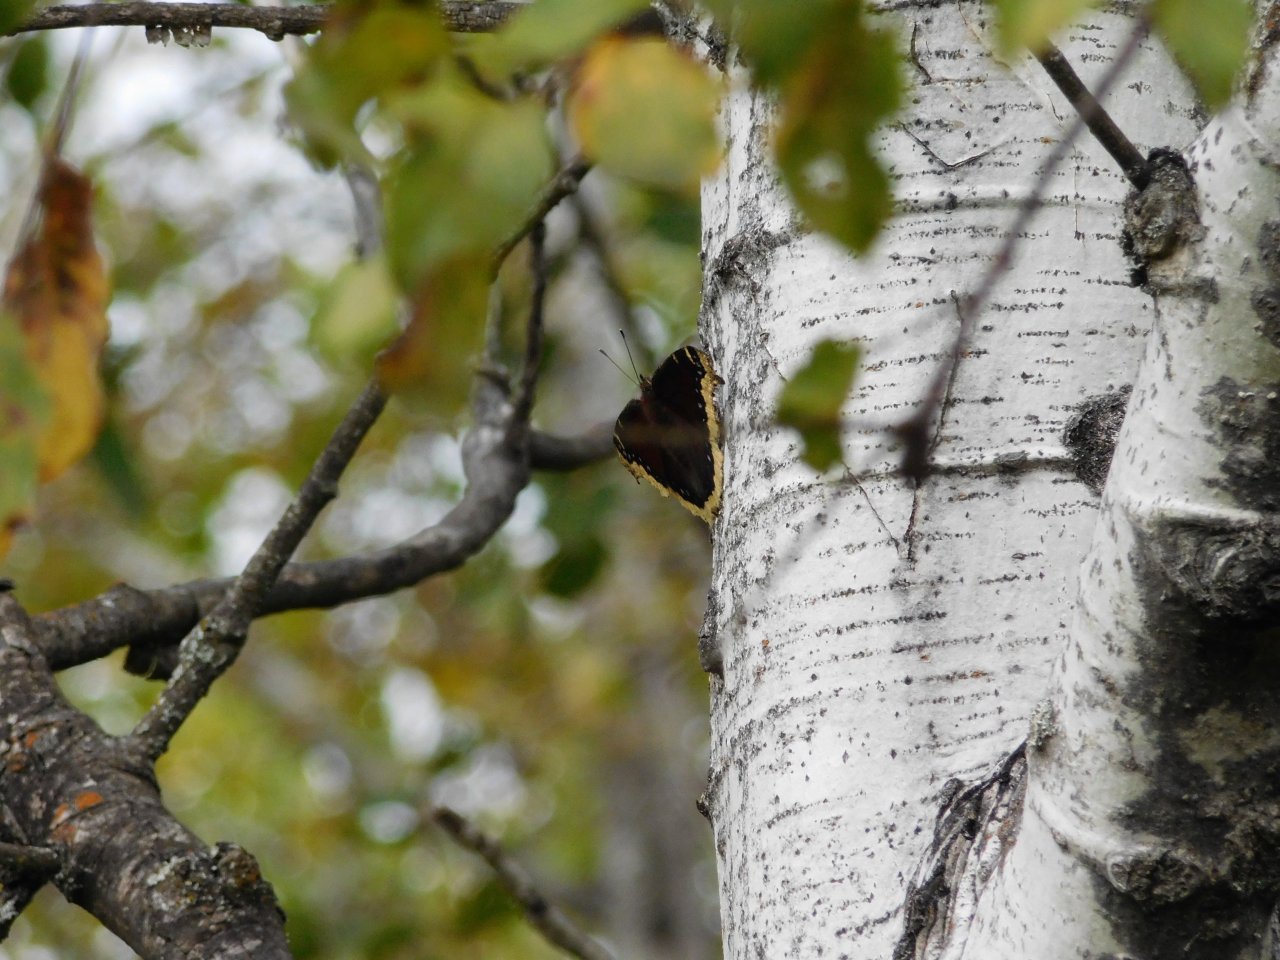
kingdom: Animalia
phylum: Arthropoda
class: Insecta
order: Lepidoptera
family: Nymphalidae
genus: Nymphalis
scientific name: Nymphalis antiopa
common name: Mourning Cloak
